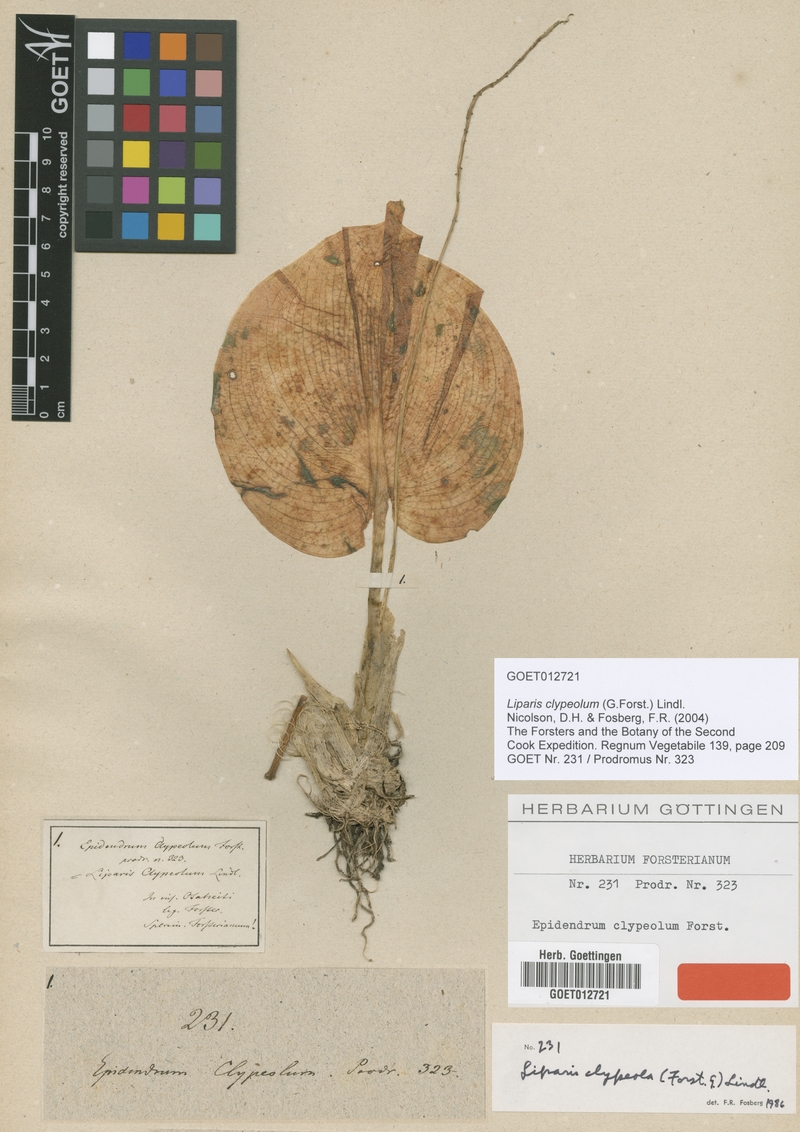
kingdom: Plantae
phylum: Tracheophyta
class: Liliopsida
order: Asparagales
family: Orchidaceae
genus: Liparis
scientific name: Liparis clypeolum
